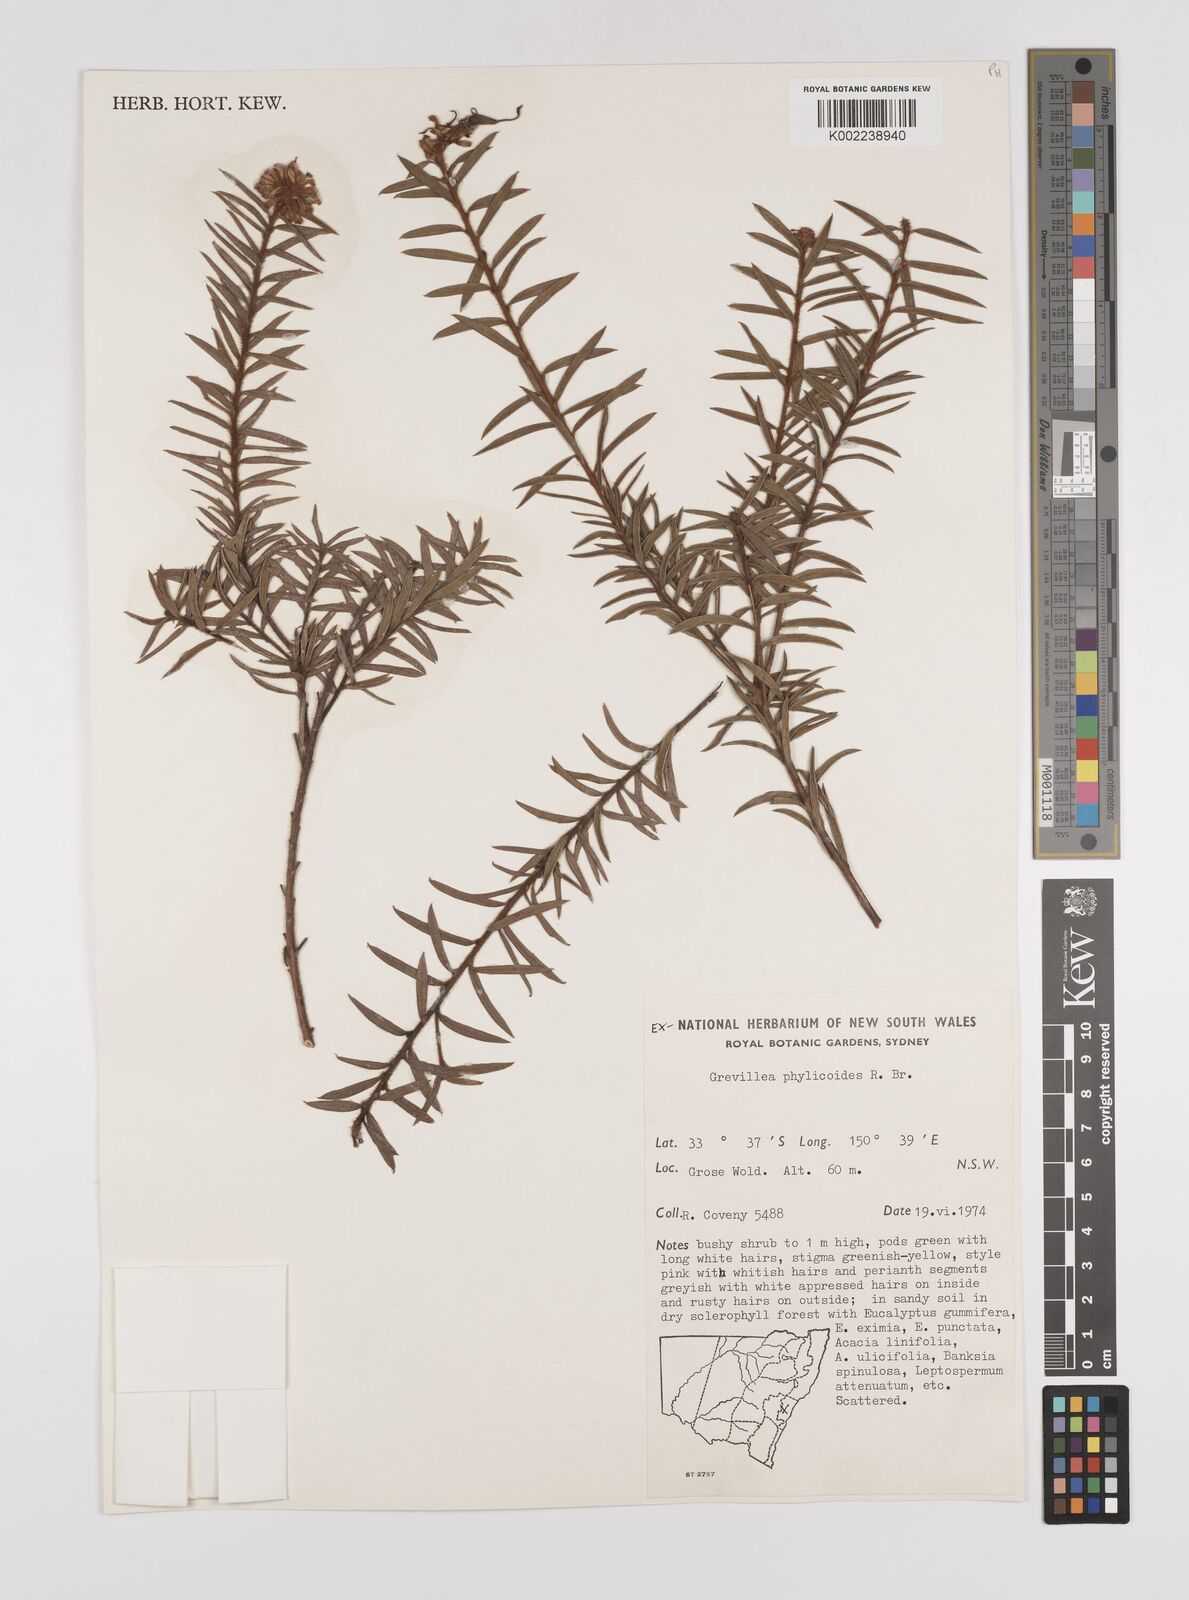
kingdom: Plantae
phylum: Tracheophyta
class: Magnoliopsida
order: Proteales
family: Proteaceae
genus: Grevillea
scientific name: Grevillea phylicoides
